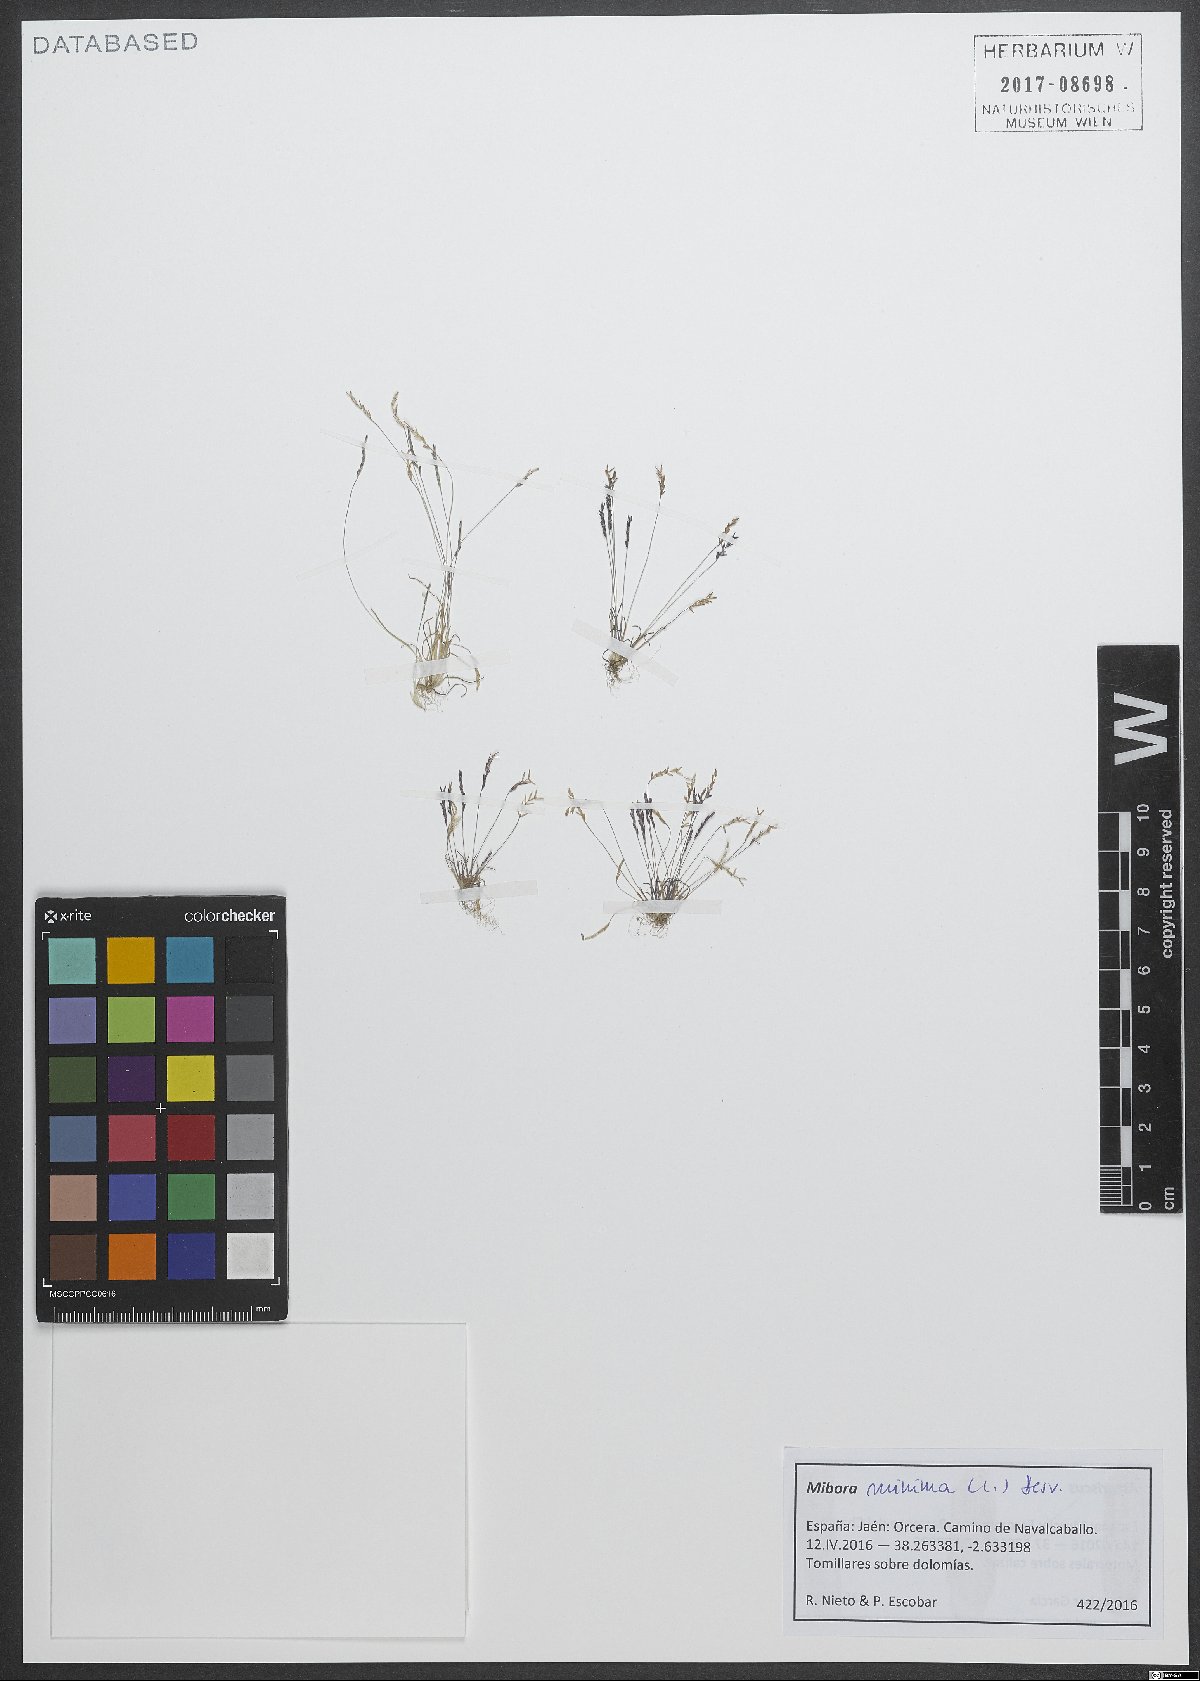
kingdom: Plantae
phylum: Tracheophyta
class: Liliopsida
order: Poales
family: Poaceae
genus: Mibora
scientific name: Mibora minima
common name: Early sand-grass
